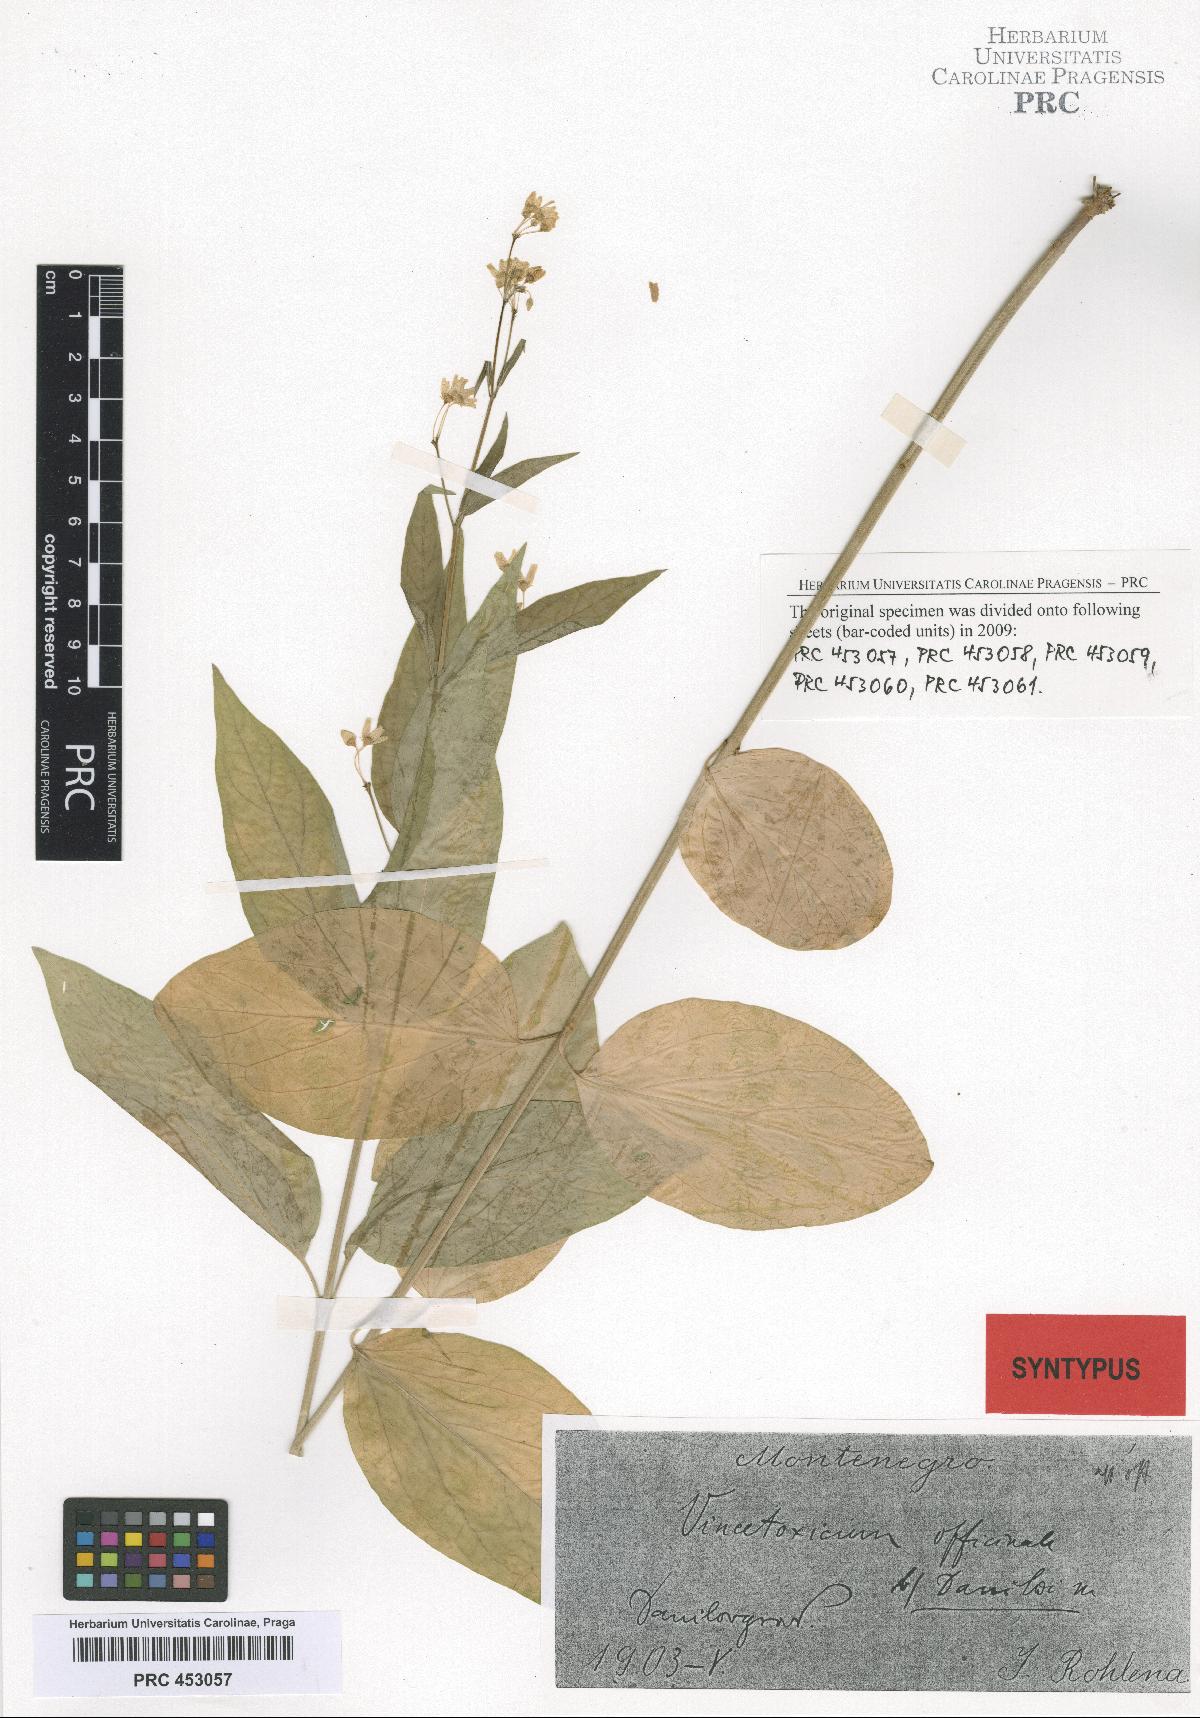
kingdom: Plantae
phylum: Tracheophyta
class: Magnoliopsida
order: Gentianales
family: Apocynaceae
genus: Vincetoxicum
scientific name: Vincetoxicum hirundinaria
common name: White swallowwort
